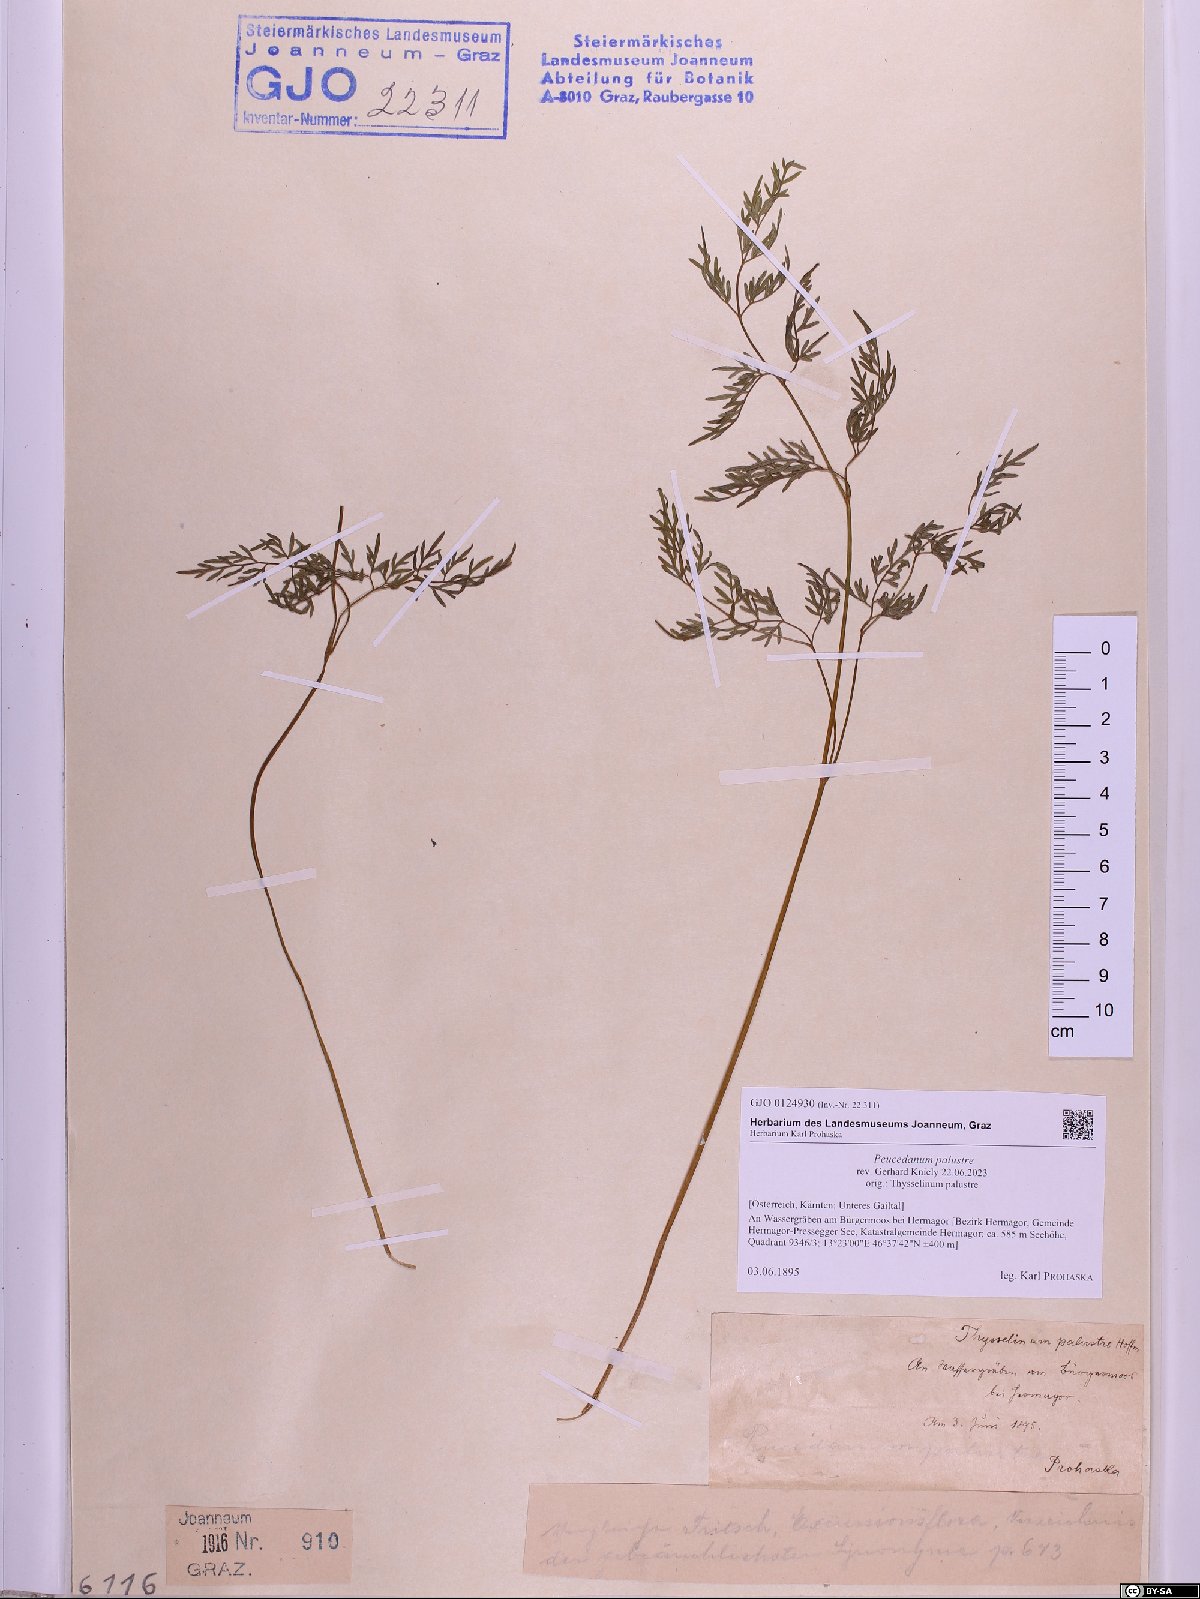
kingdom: Plantae
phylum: Tracheophyta
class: Magnoliopsida
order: Apiales
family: Apiaceae
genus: Thysselinum
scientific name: Thysselinum palustre
